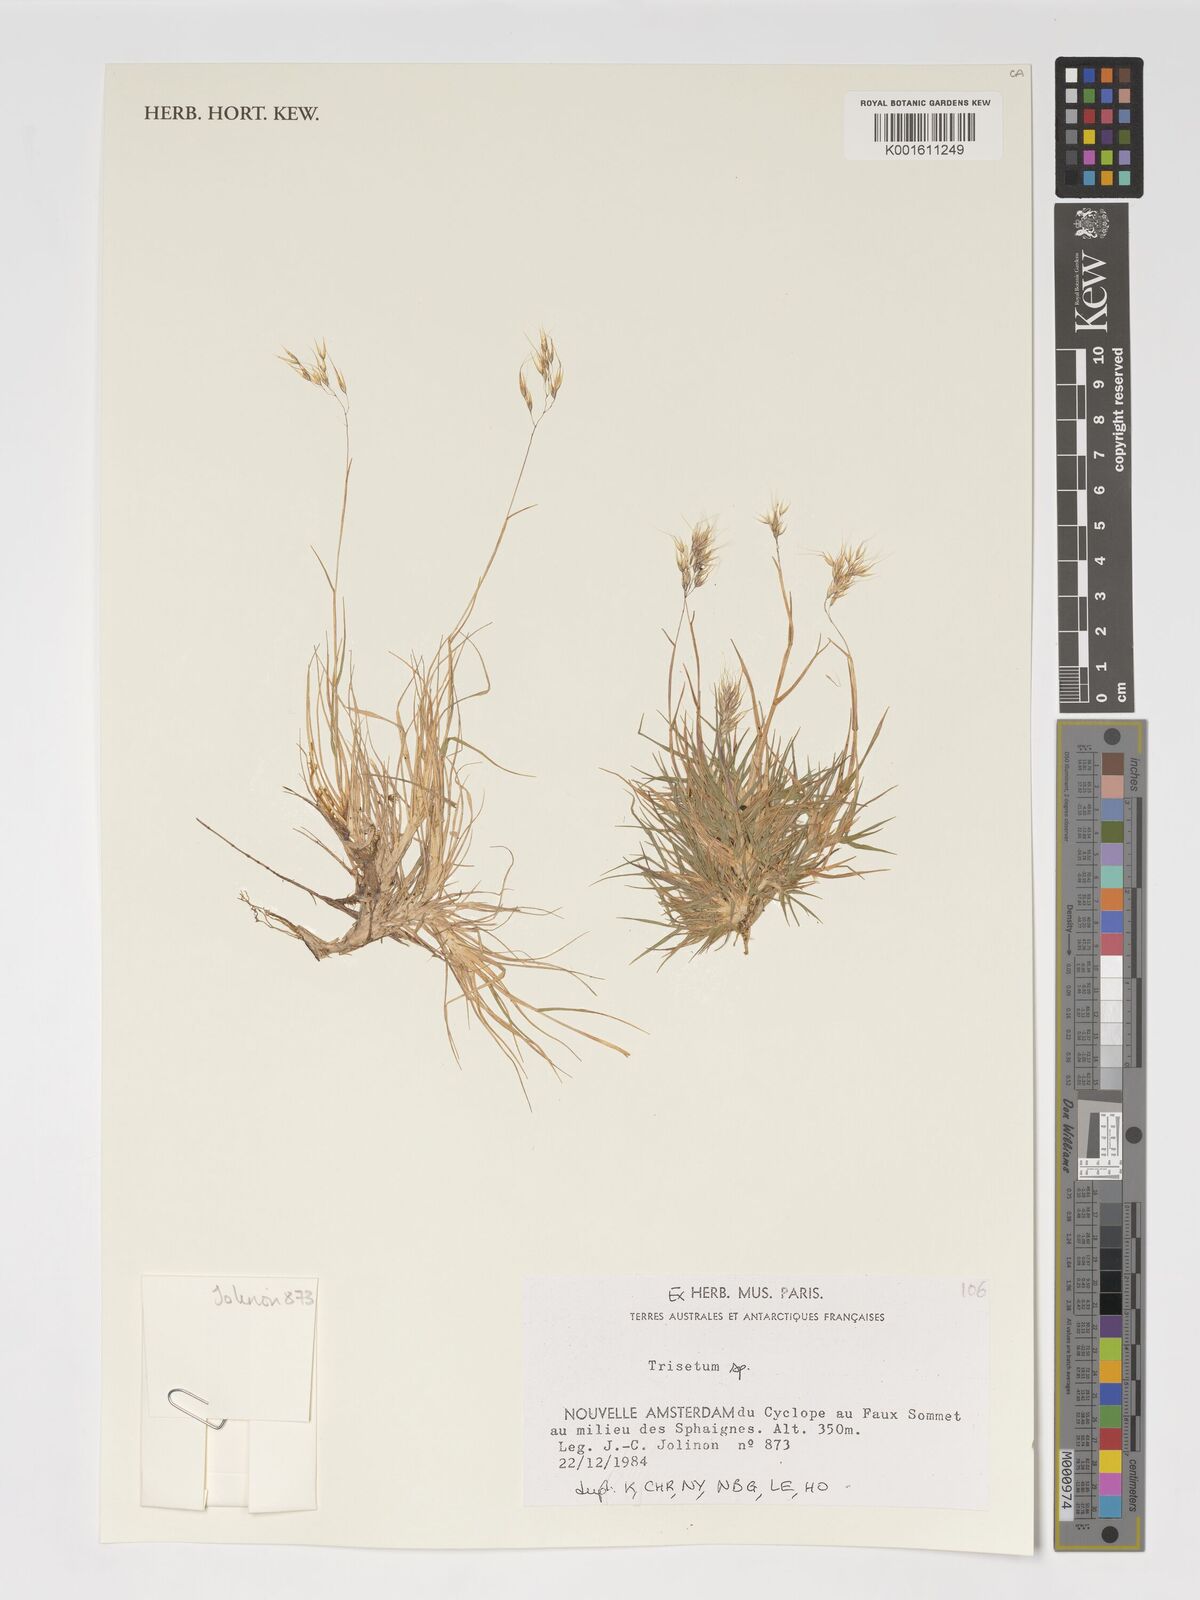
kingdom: Plantae
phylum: Tracheophyta
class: Liliopsida
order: Poales
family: Poaceae
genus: Trisetum
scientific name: Trisetum
